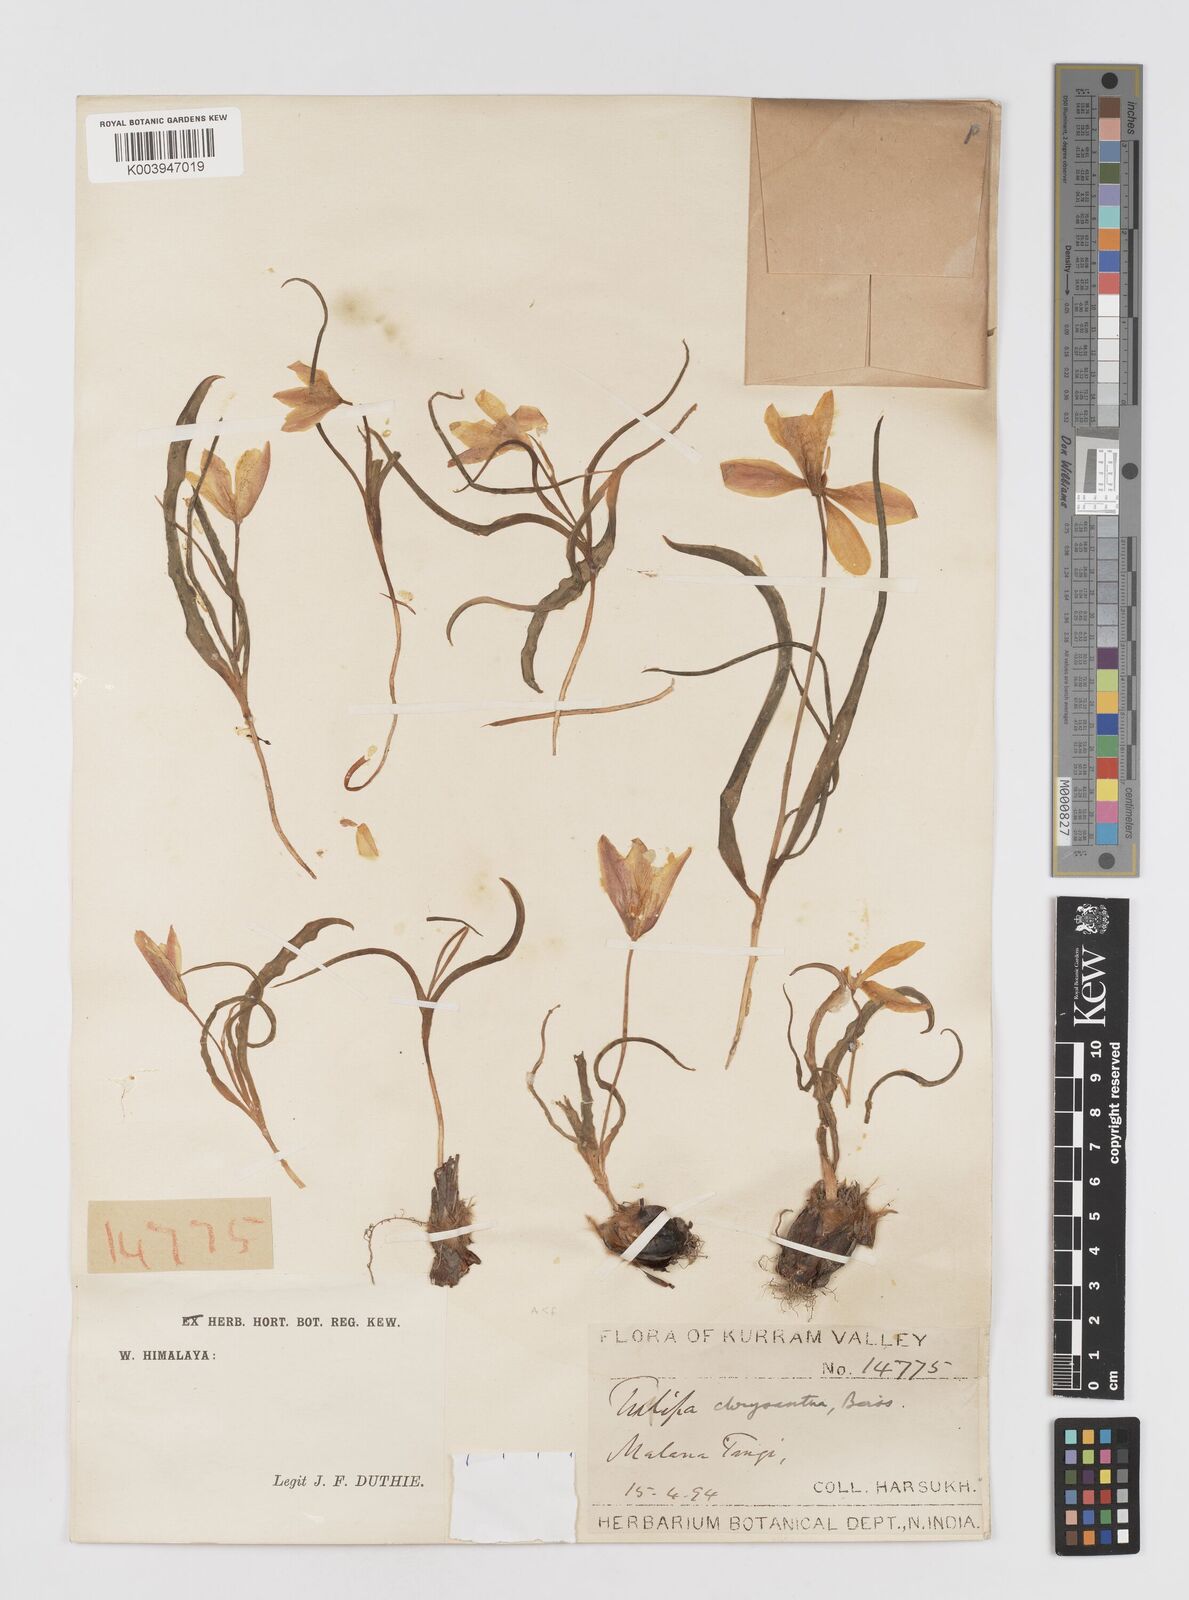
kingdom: Plantae
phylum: Tracheophyta
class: Liliopsida
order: Liliales
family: Liliaceae
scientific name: Liliaceae
